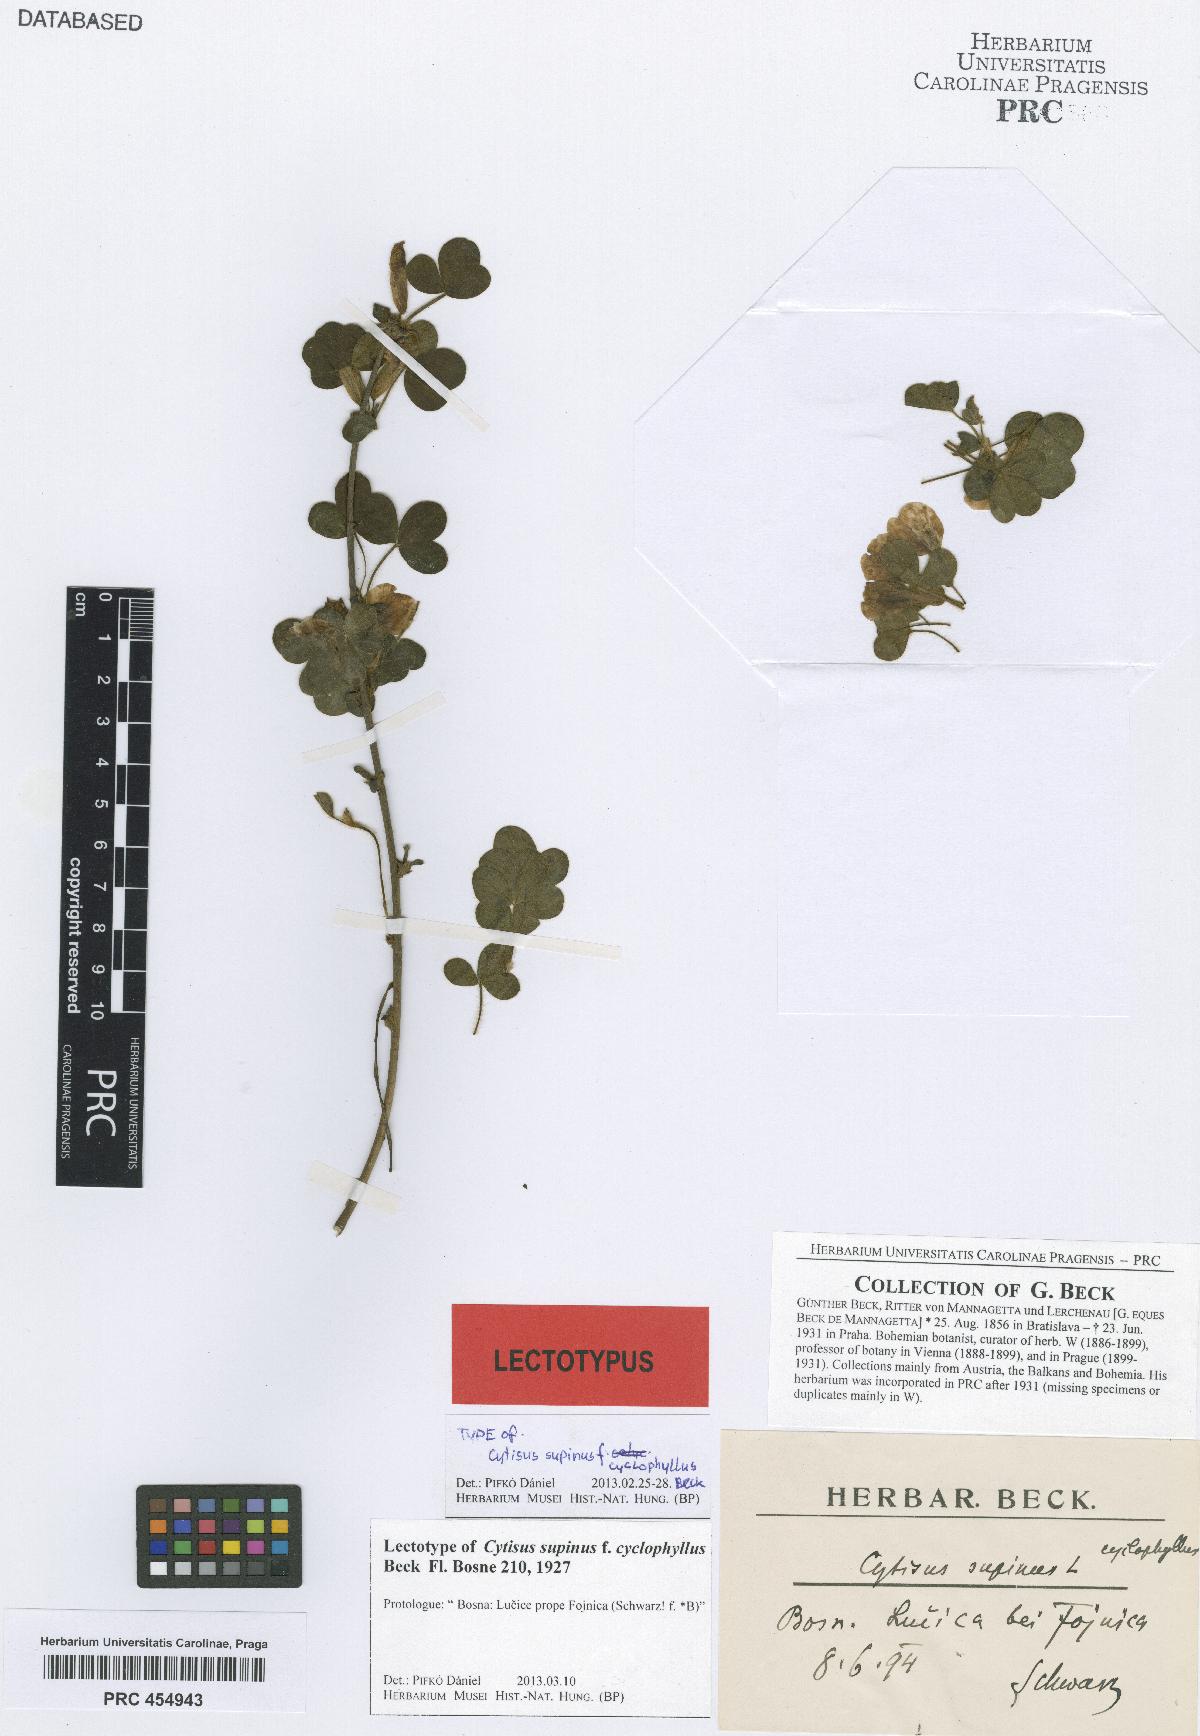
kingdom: Plantae
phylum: Tracheophyta
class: Magnoliopsida
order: Fabales
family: Fabaceae
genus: Chamaecytisus
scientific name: Chamaecytisus supinus
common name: Clustered broom
